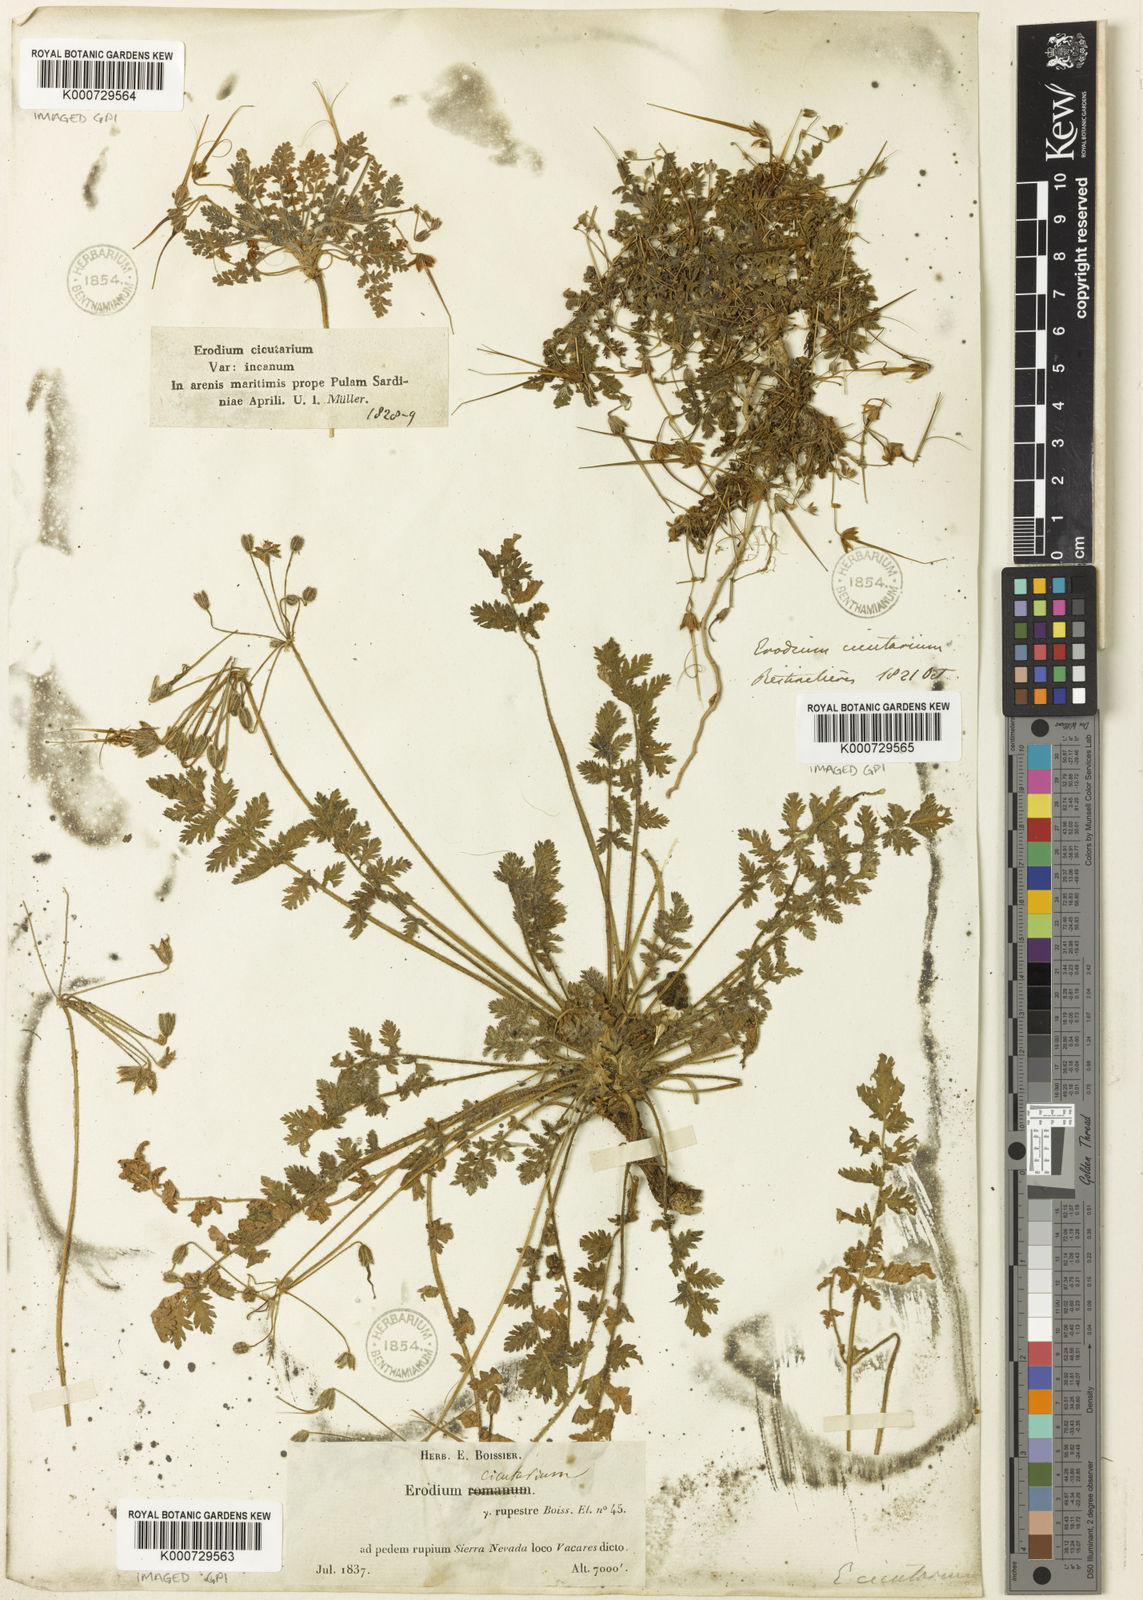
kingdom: Plantae
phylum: Tracheophyta
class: Magnoliopsida
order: Geraniales
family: Geraniaceae
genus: Erodium
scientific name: Erodium rupicola
